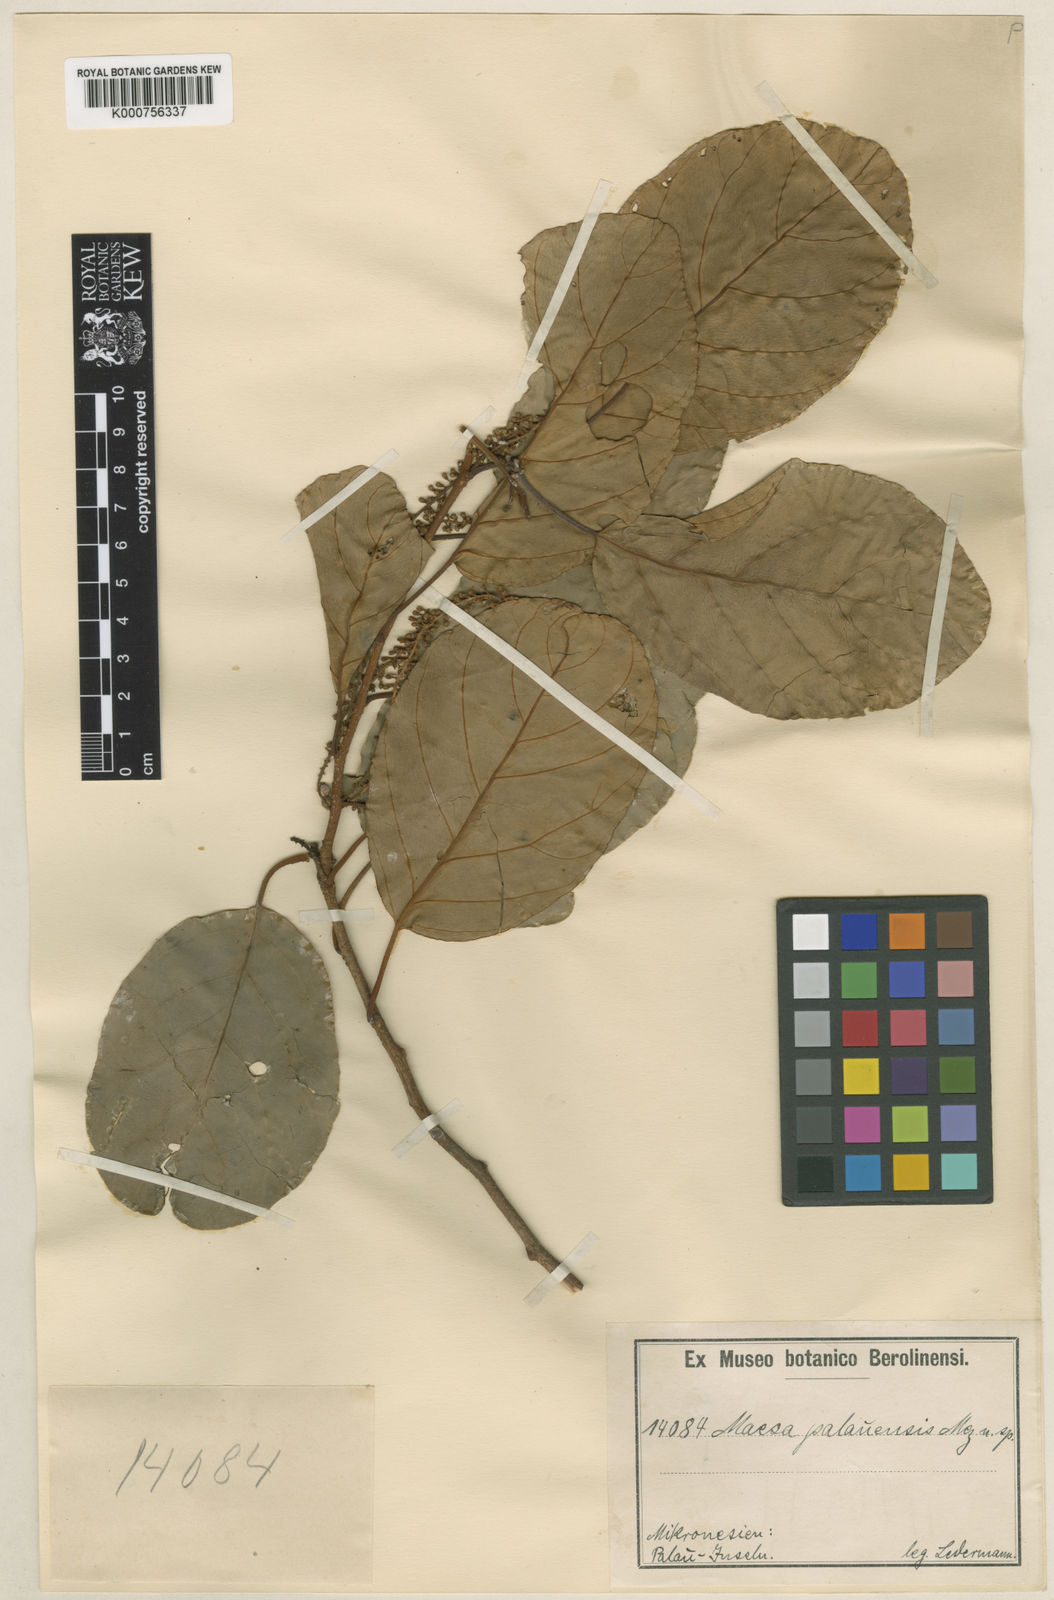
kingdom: Plantae
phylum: Tracheophyta
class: Magnoliopsida
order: Ericales
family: Primulaceae
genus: Maesa
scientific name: Maesa palauensis
